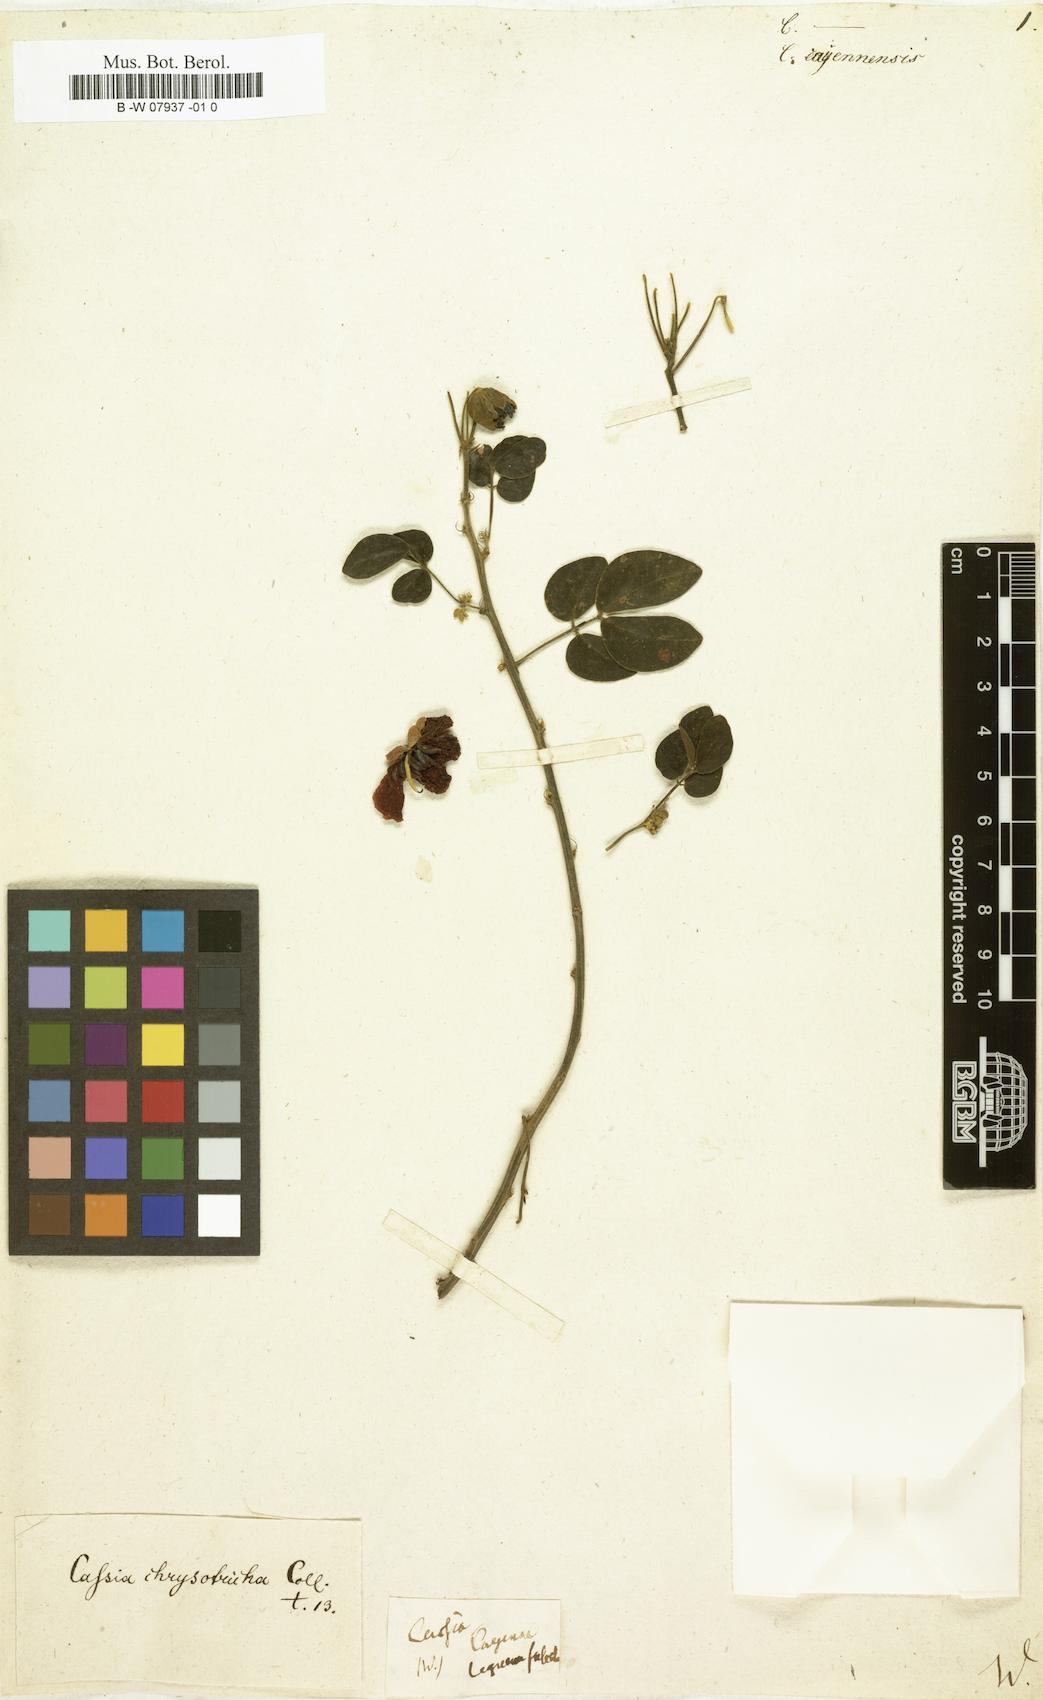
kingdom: Plantae
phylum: Tracheophyta
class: Magnoliopsida
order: Fabales
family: Fabaceae
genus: Senna
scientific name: Senna
